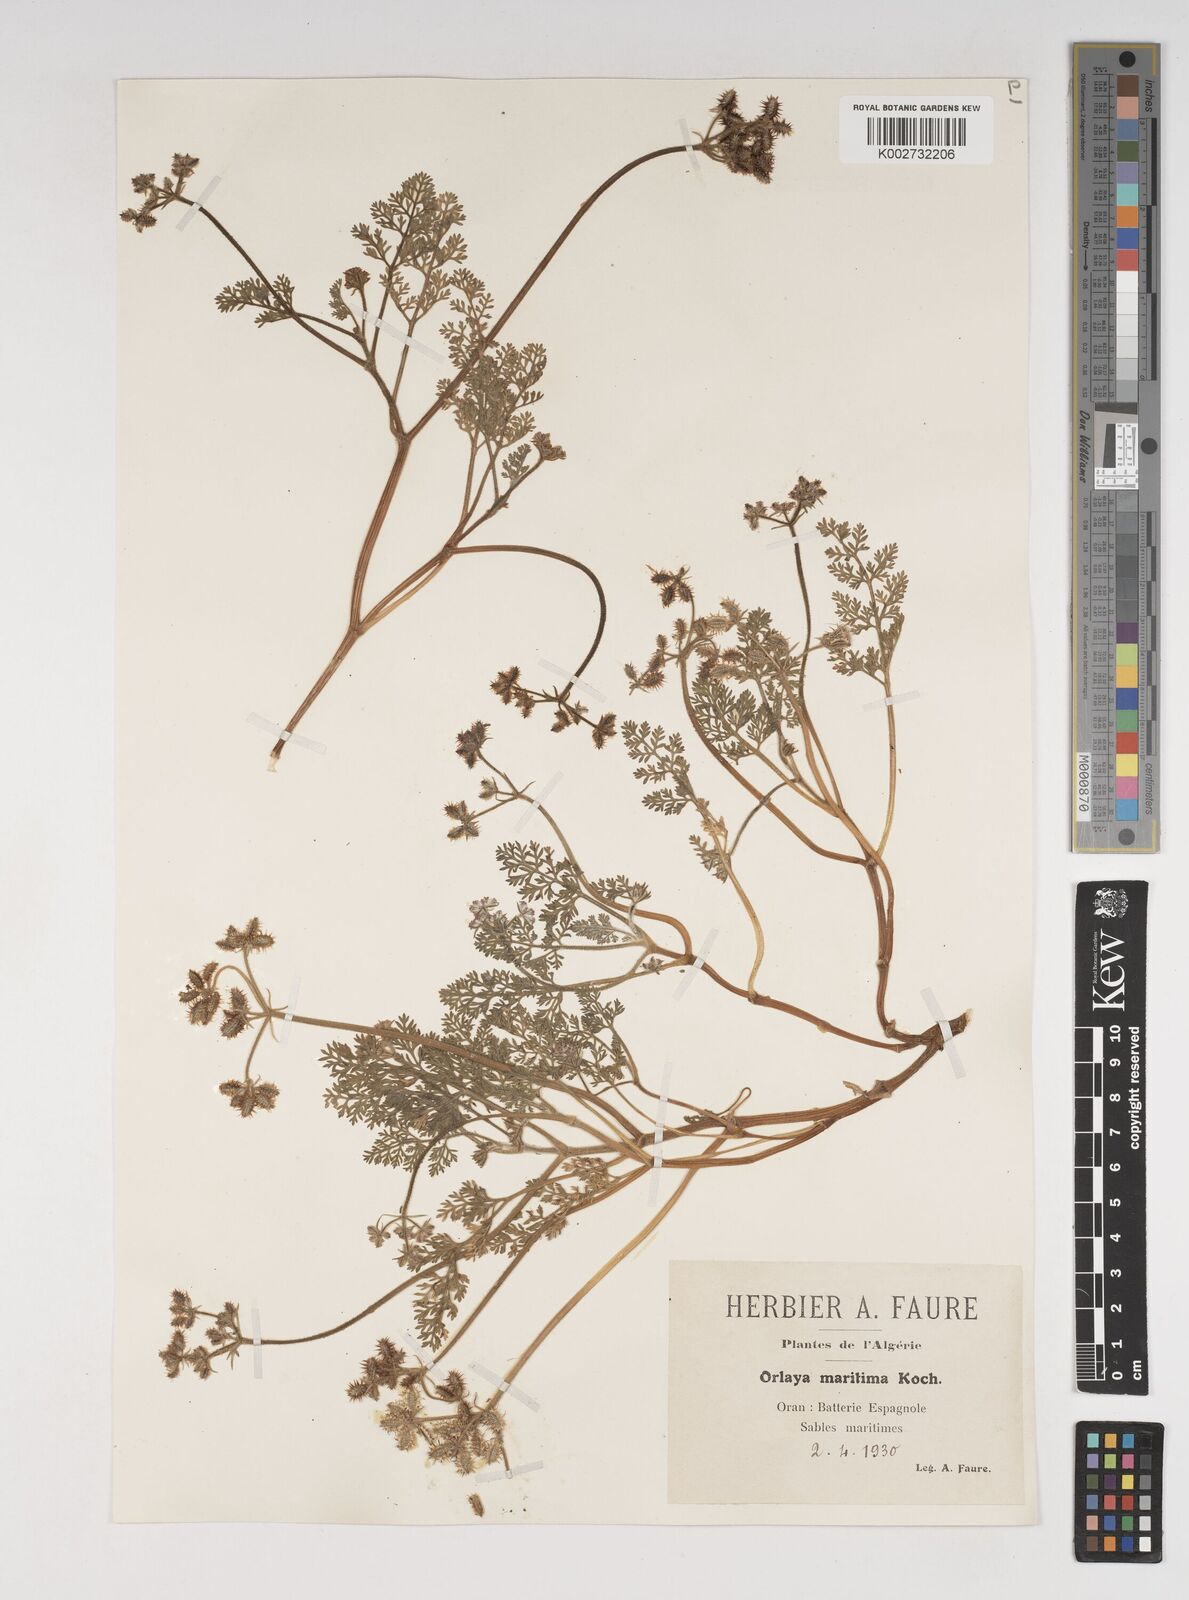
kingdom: Plantae
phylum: Tracheophyta
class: Magnoliopsida
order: Apiales
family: Apiaceae
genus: Daucus
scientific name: Daucus pumilus
